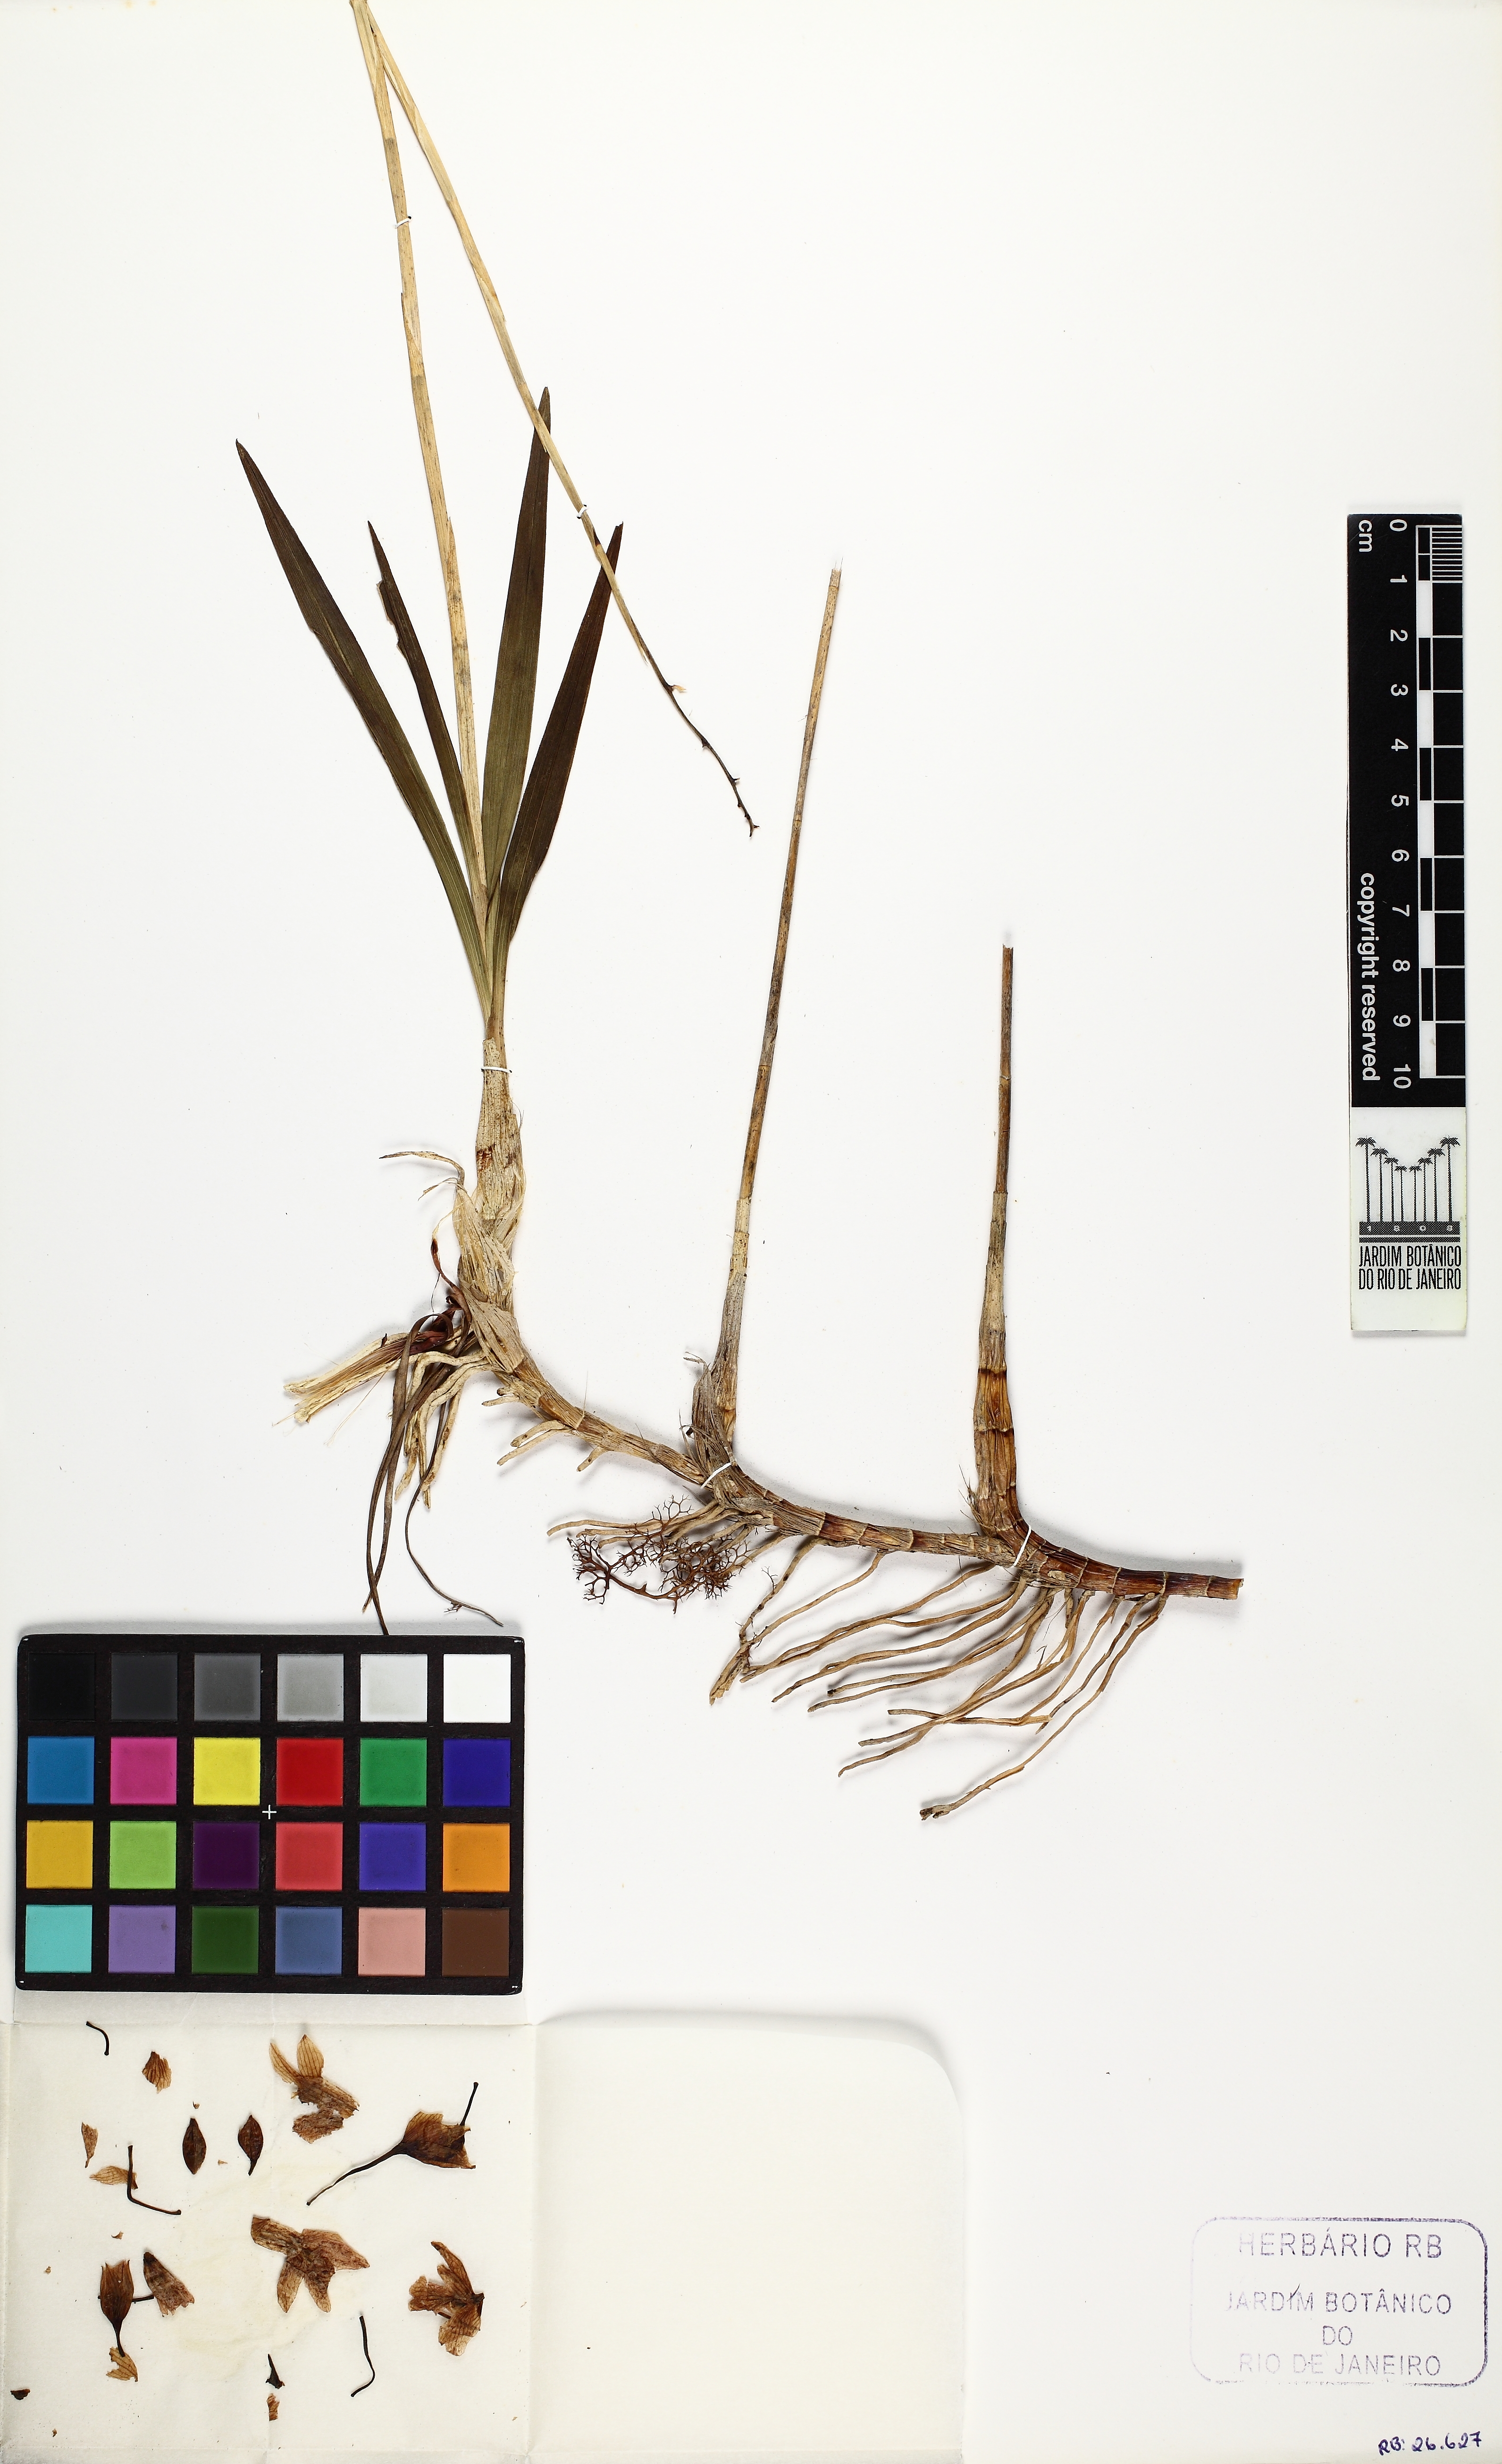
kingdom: Plantae
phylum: Tracheophyta
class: Liliopsida
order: Asparagales
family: Orchidaceae
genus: Pseudolaelia
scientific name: Pseudolaelia corcovadensis
